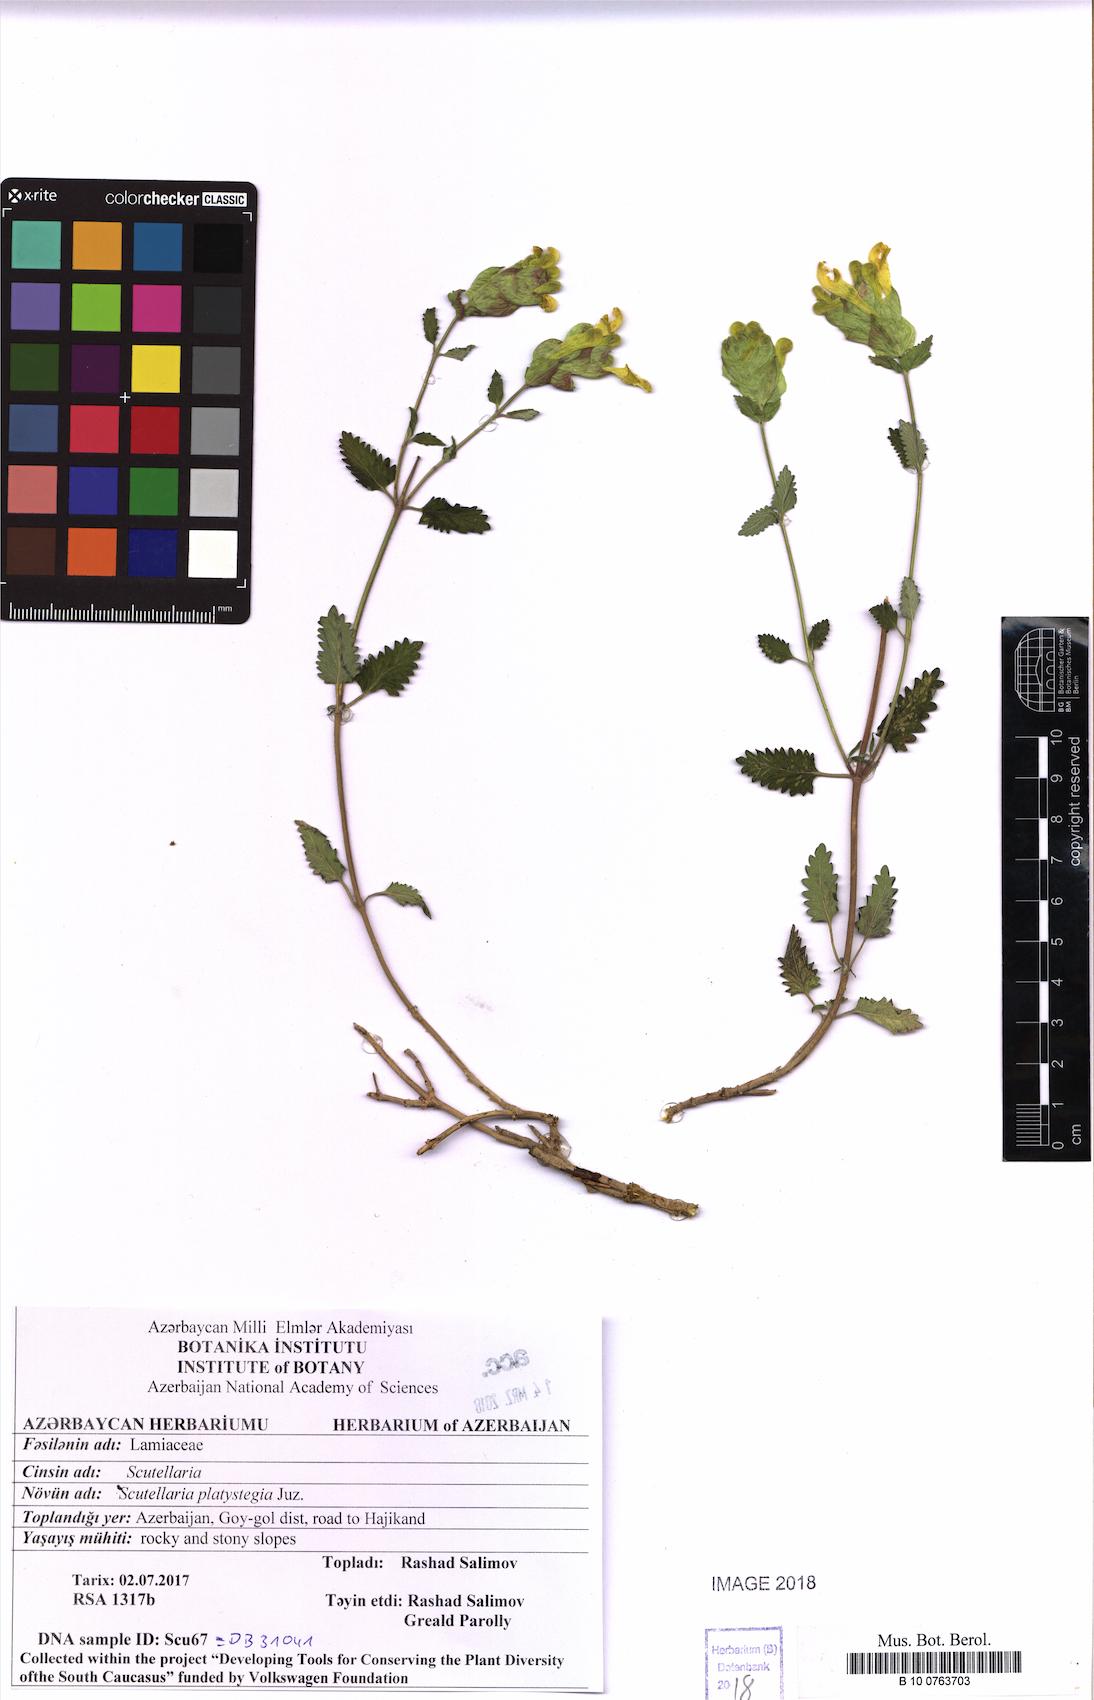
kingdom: Plantae
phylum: Tracheophyta
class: Magnoliopsida
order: Lamiales
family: Lamiaceae
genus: Scutellaria
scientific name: Scutellaria platystegia
